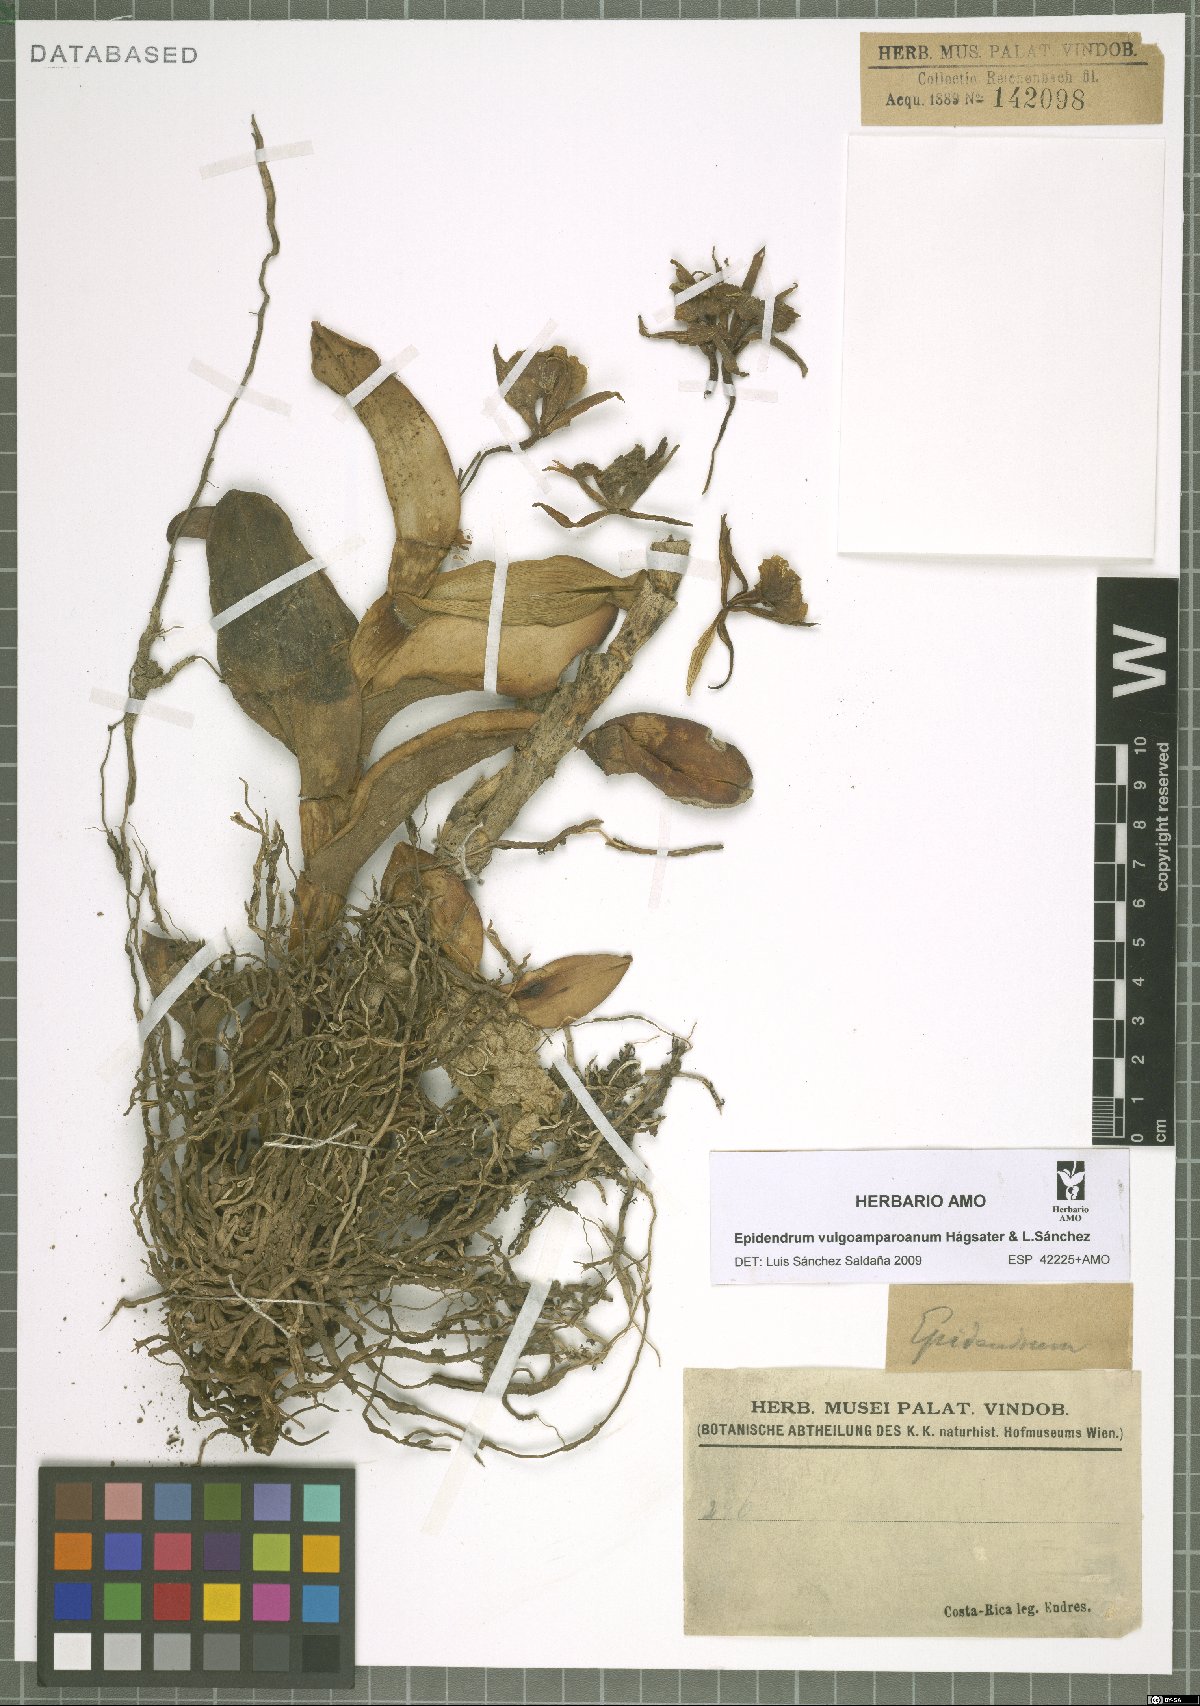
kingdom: Plantae
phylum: Tracheophyta
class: Liliopsida
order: Asparagales
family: Orchidaceae
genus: Epidendrum
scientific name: Epidendrum vulgoamparoanum
